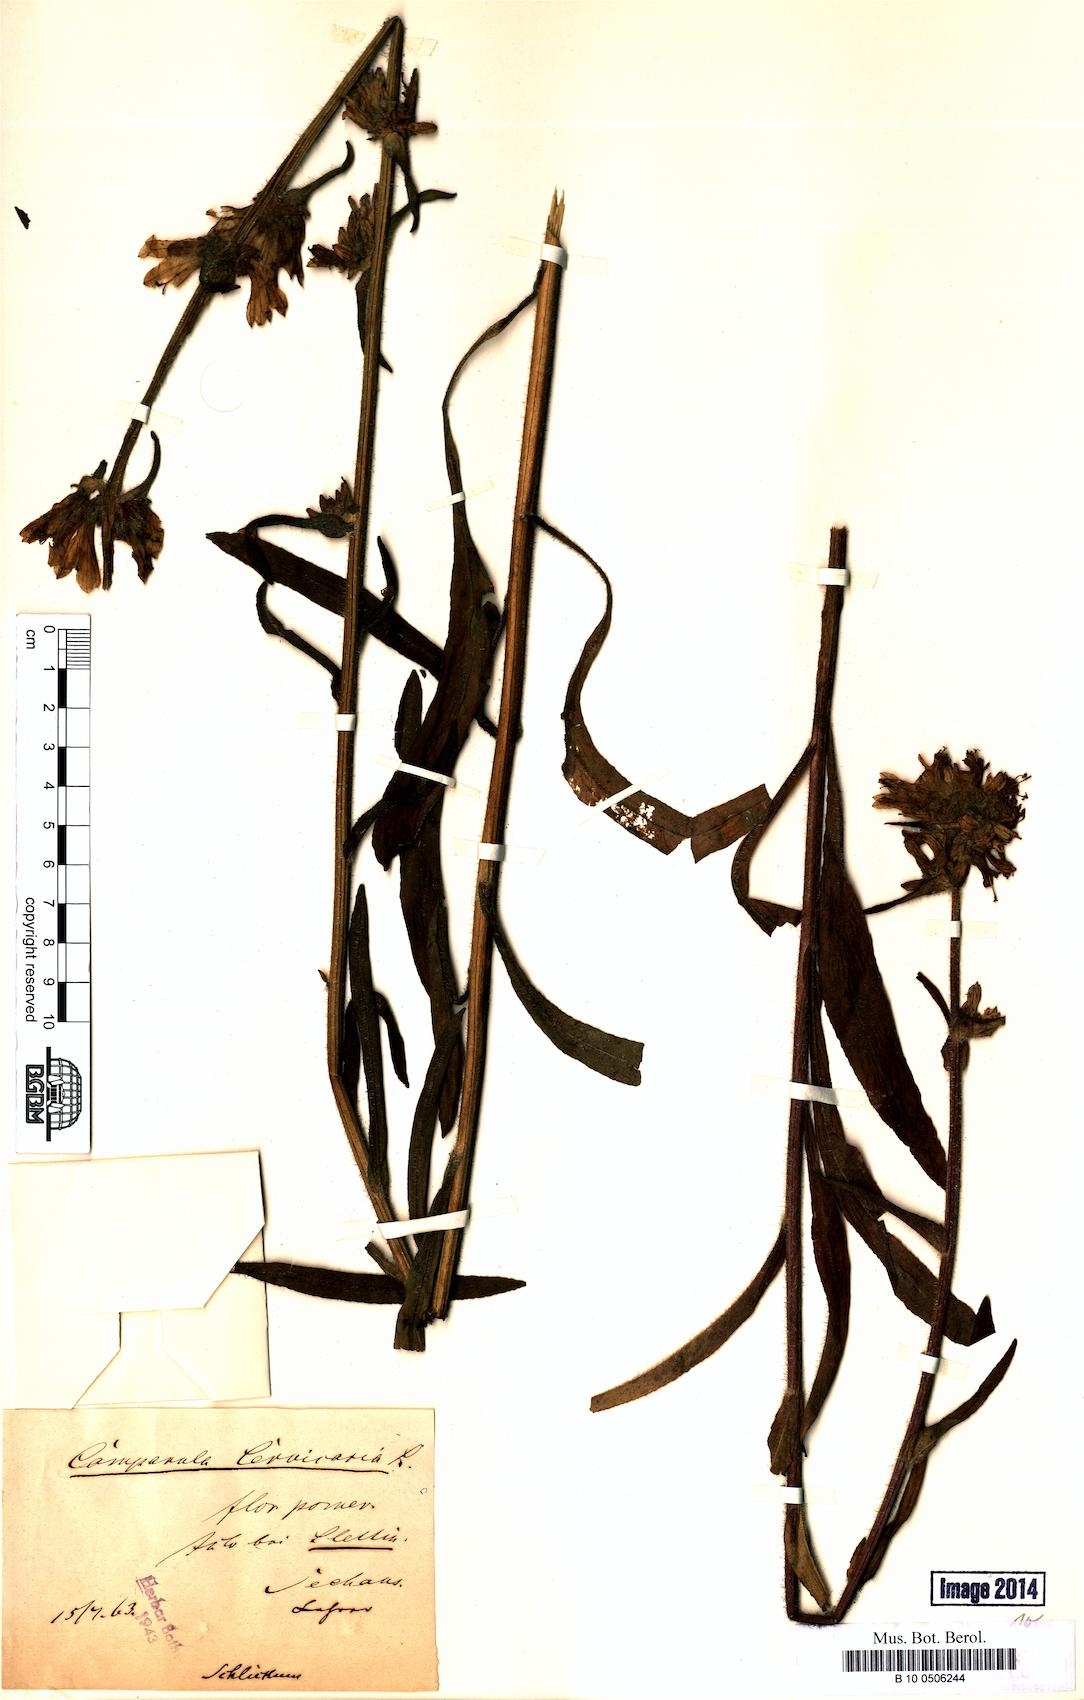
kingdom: Plantae
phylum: Tracheophyta
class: Magnoliopsida
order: Asterales
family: Campanulaceae
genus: Campanula
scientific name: Campanula cervicaria
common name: Bristly bellflower
